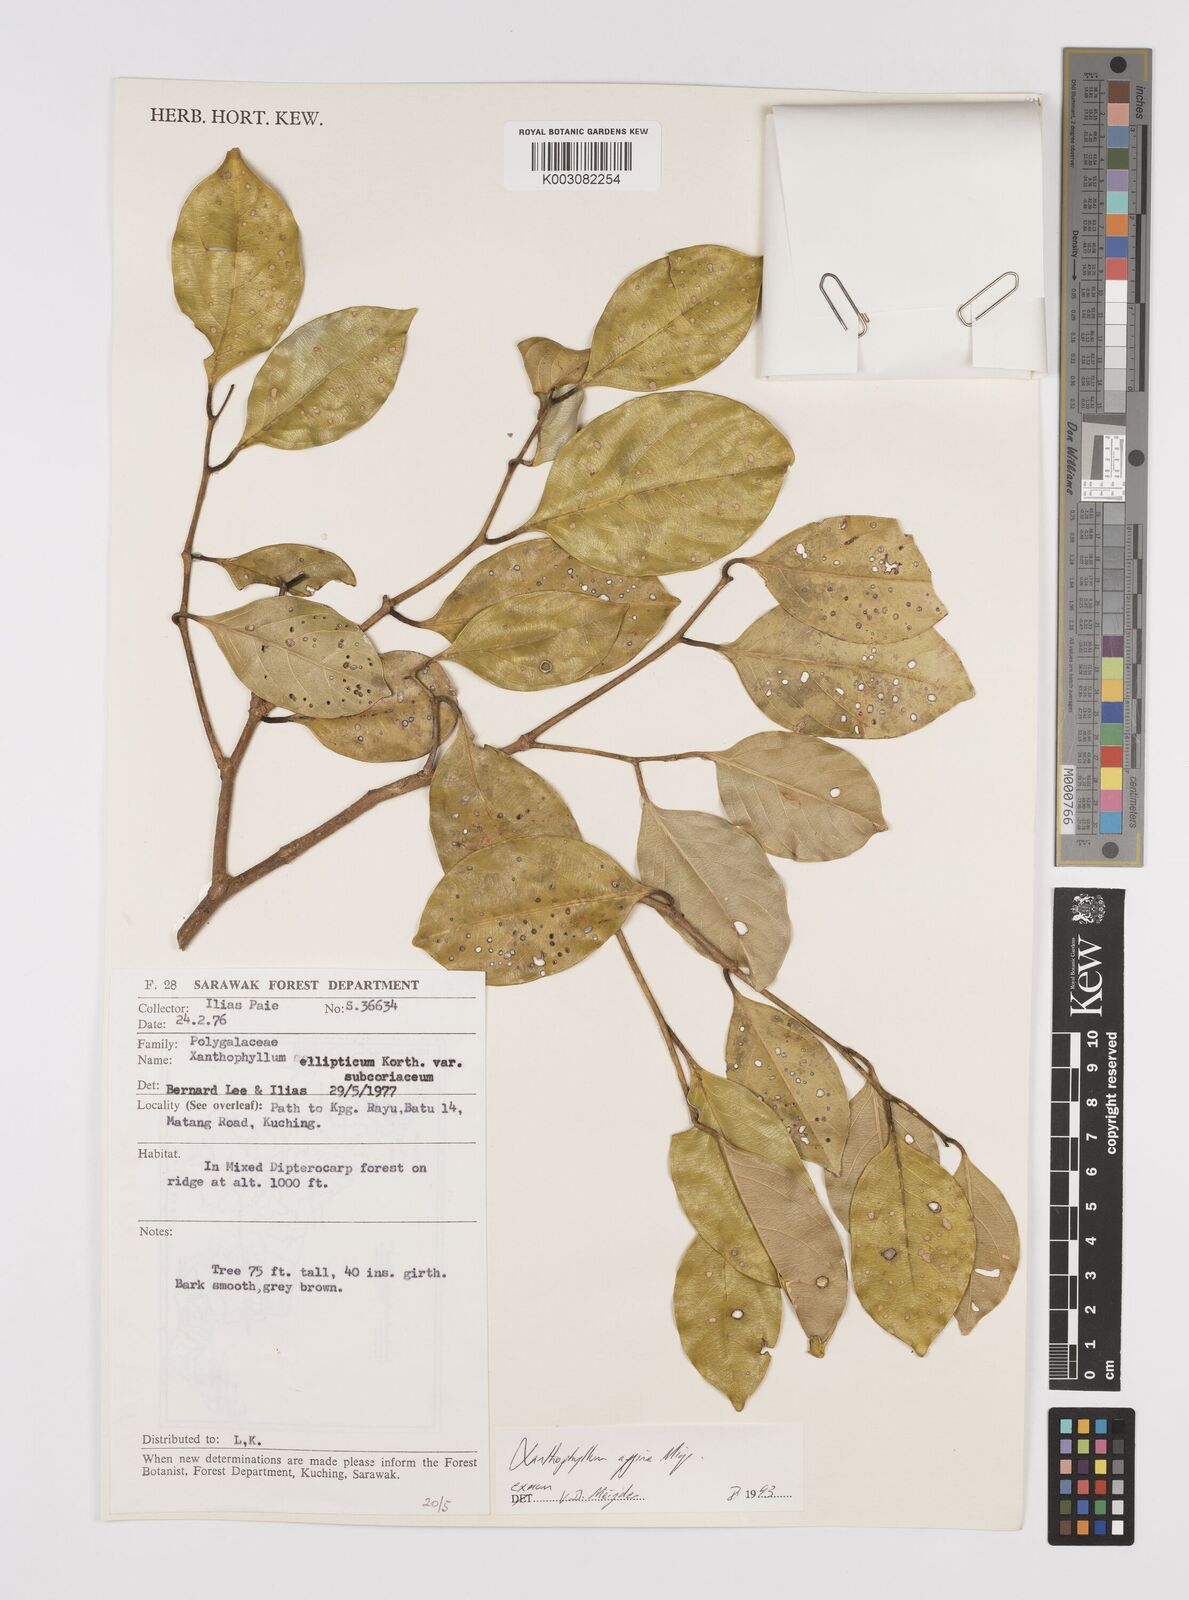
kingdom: Plantae
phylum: Tracheophyta
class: Magnoliopsida
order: Fabales
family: Polygalaceae
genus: Xanthophyllum
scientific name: Xanthophyllum flavescens
